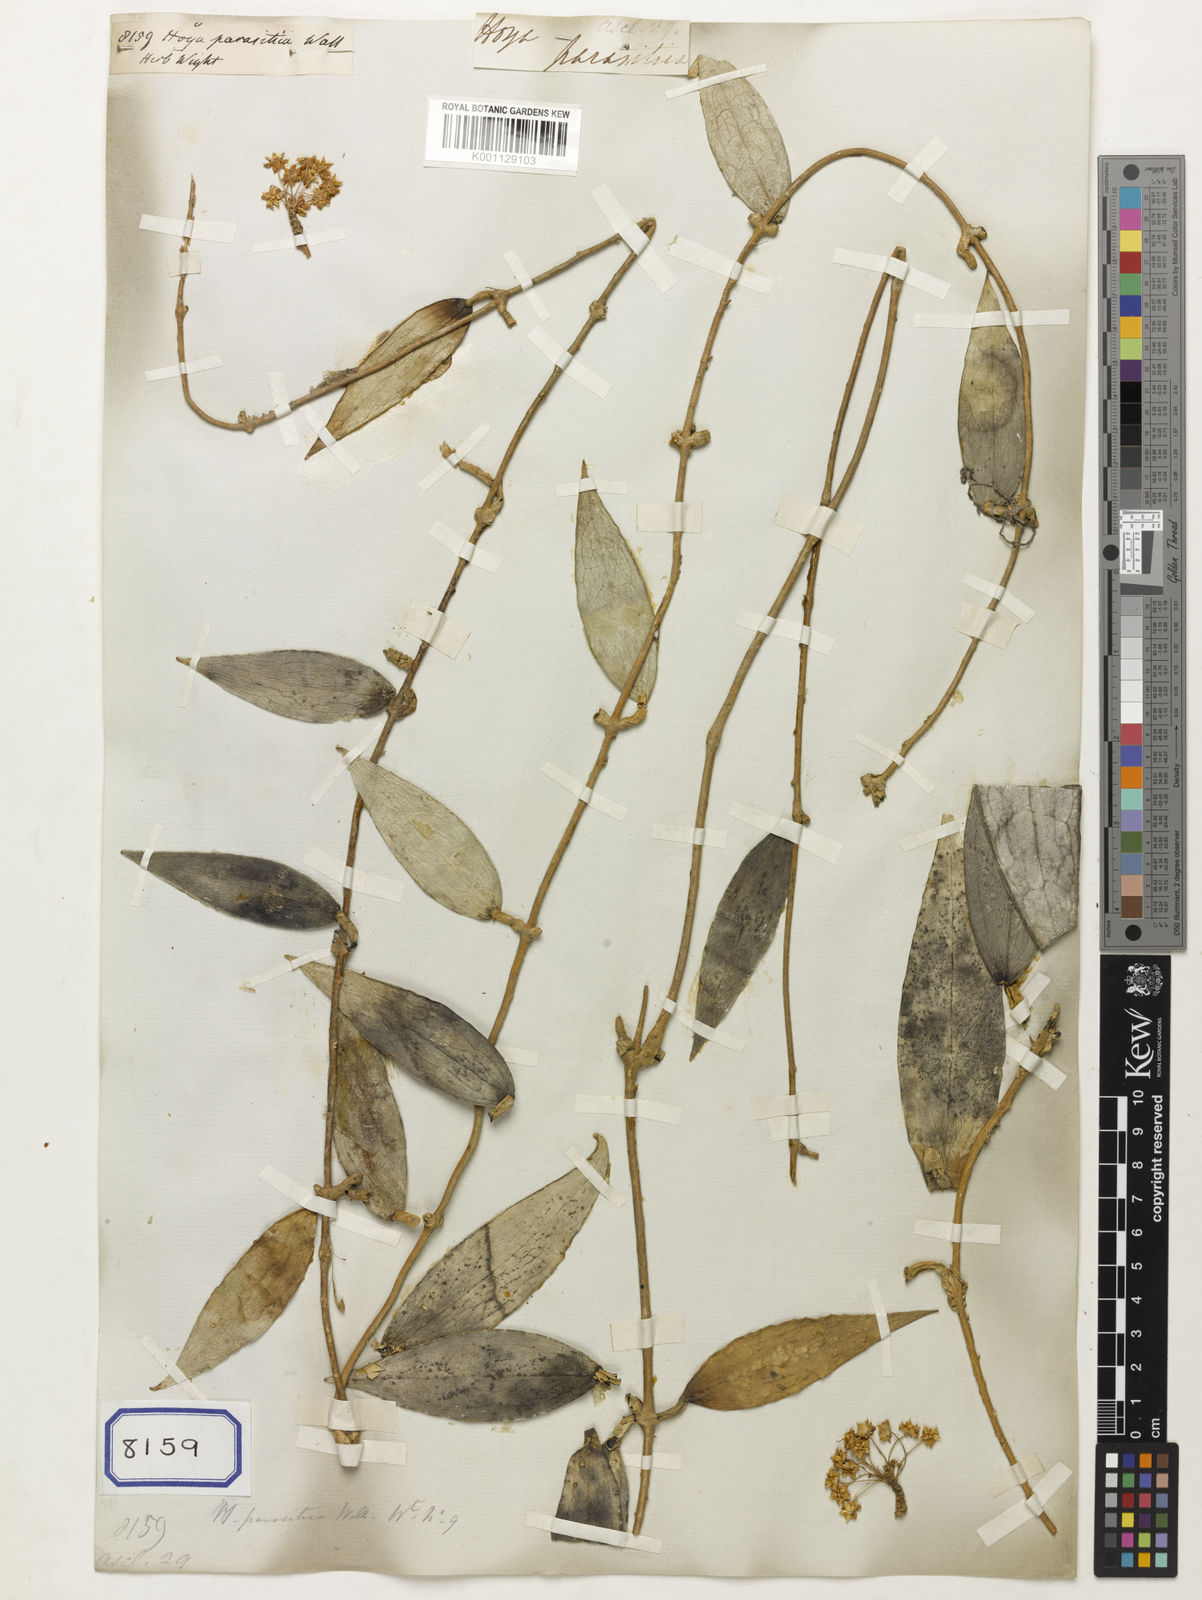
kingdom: Plantae
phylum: Tracheophyta
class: Magnoliopsida
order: Gentianales
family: Apocynaceae
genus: Hoya
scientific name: Hoya
